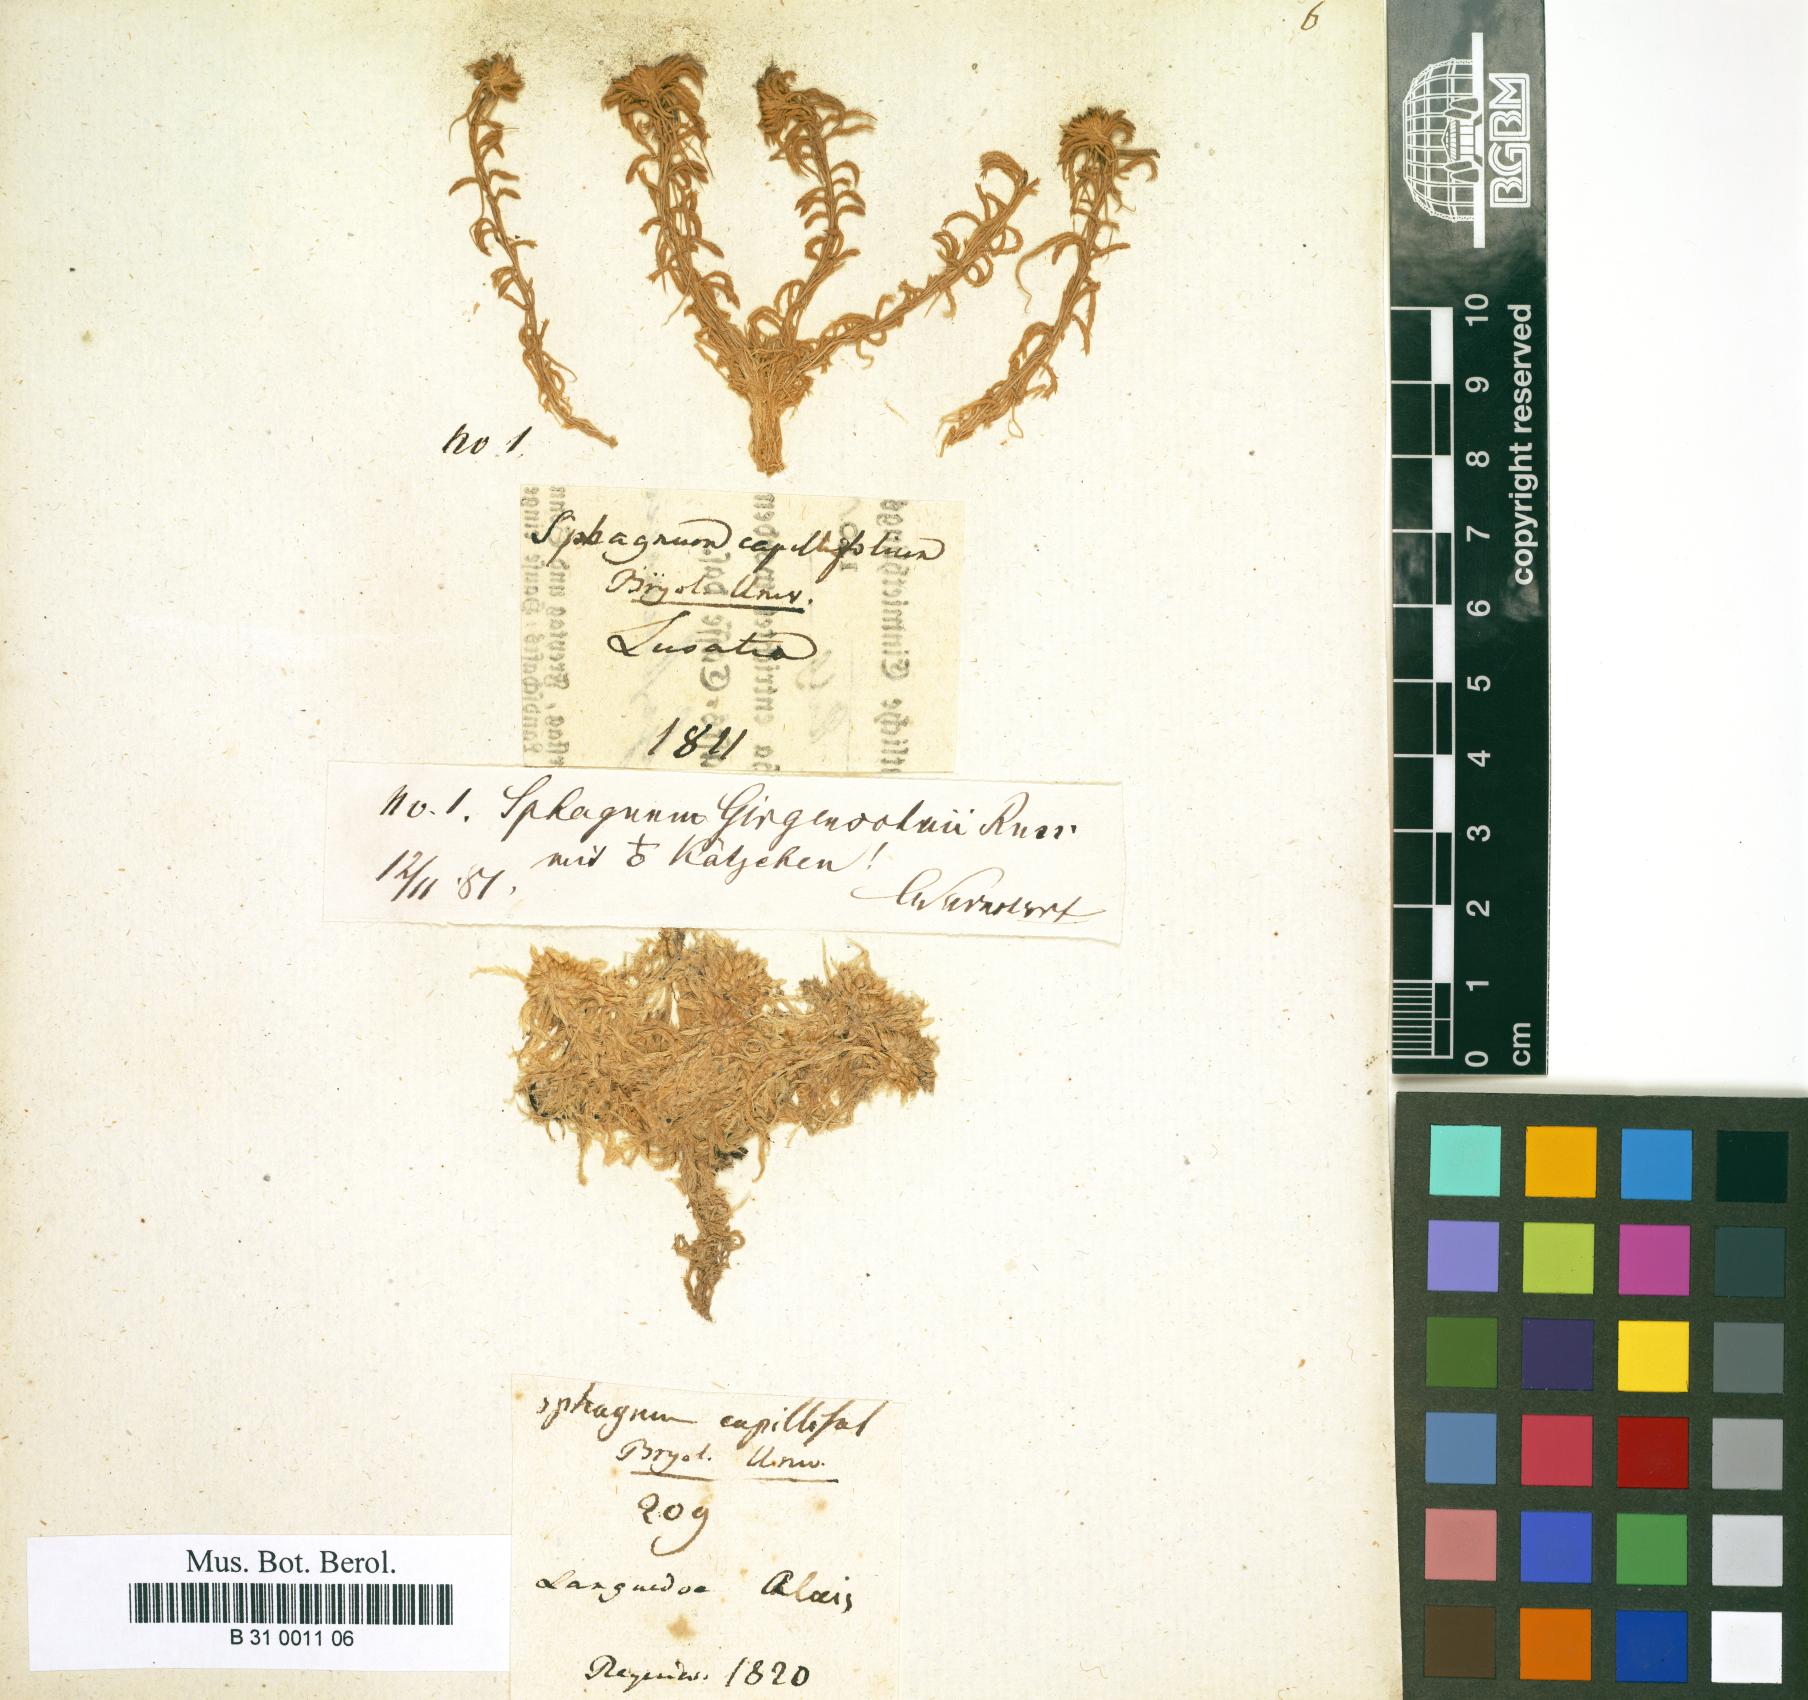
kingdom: Plantae
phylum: Bryophyta
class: Sphagnopsida
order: Sphagnales
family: Sphagnaceae
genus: Sphagnum
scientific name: Sphagnum capillifolium
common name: Small red peat moss
